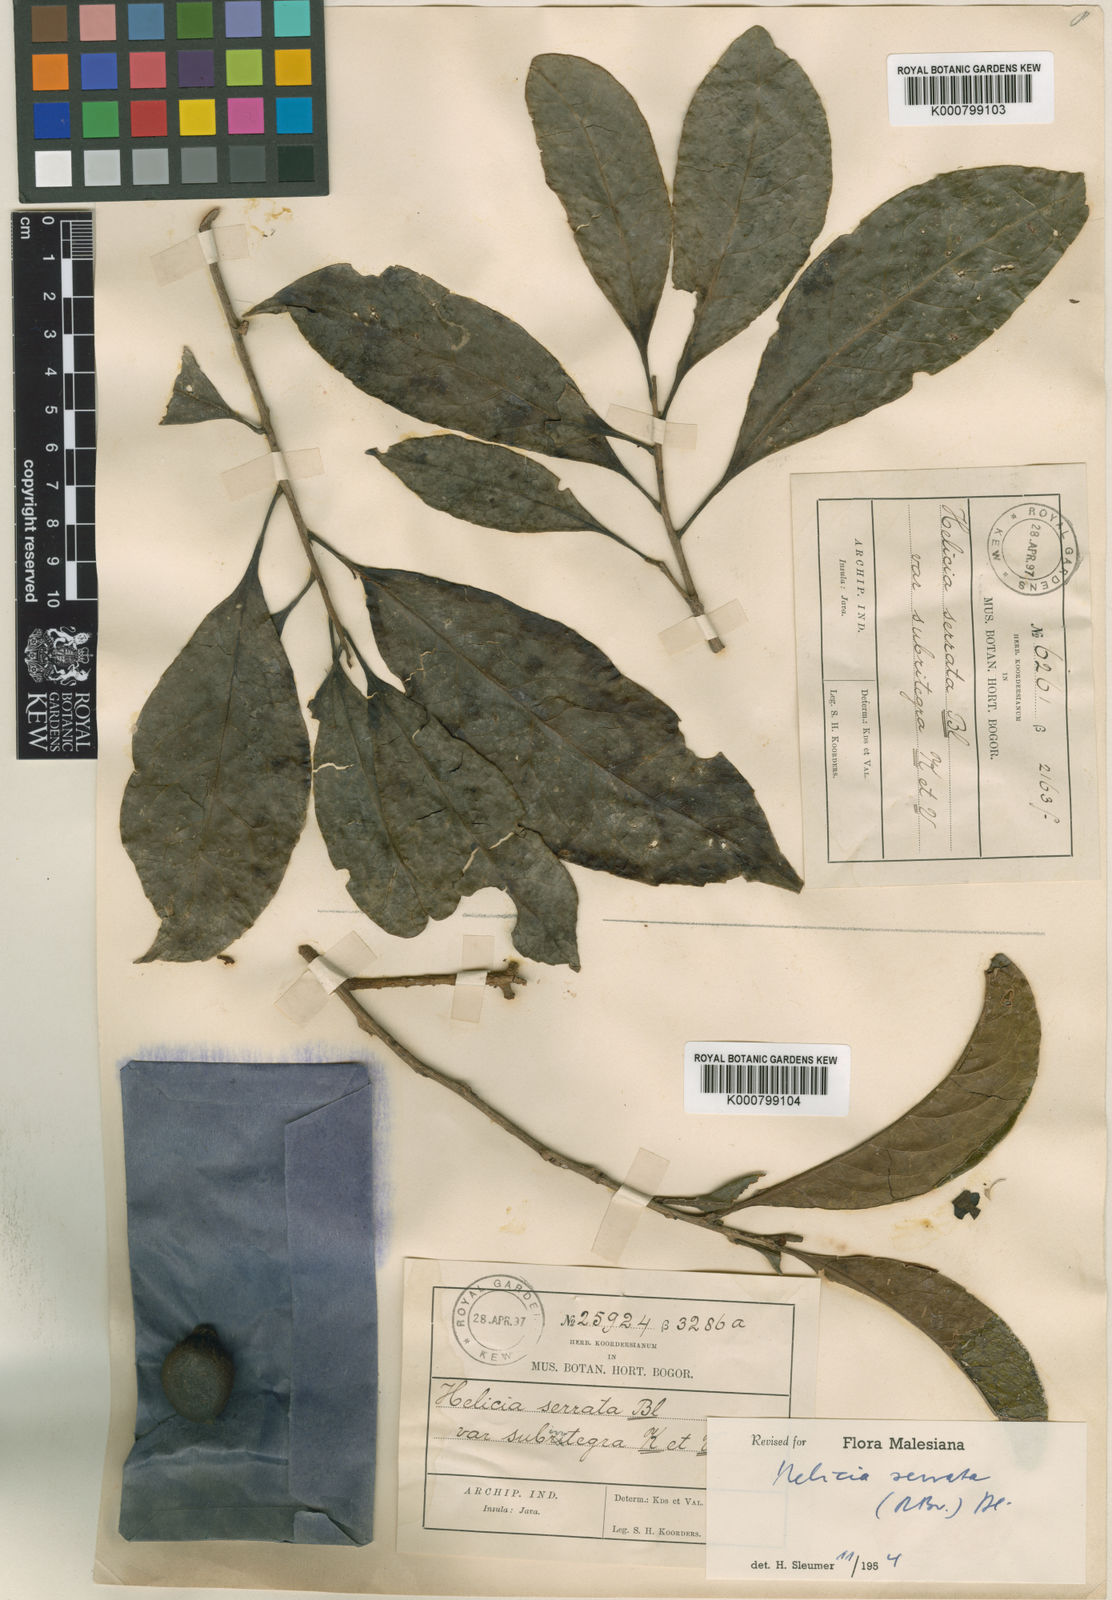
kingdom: Plantae
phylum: Tracheophyta
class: Magnoliopsida
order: Proteales
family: Proteaceae
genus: Helicia
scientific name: Helicia serrata
